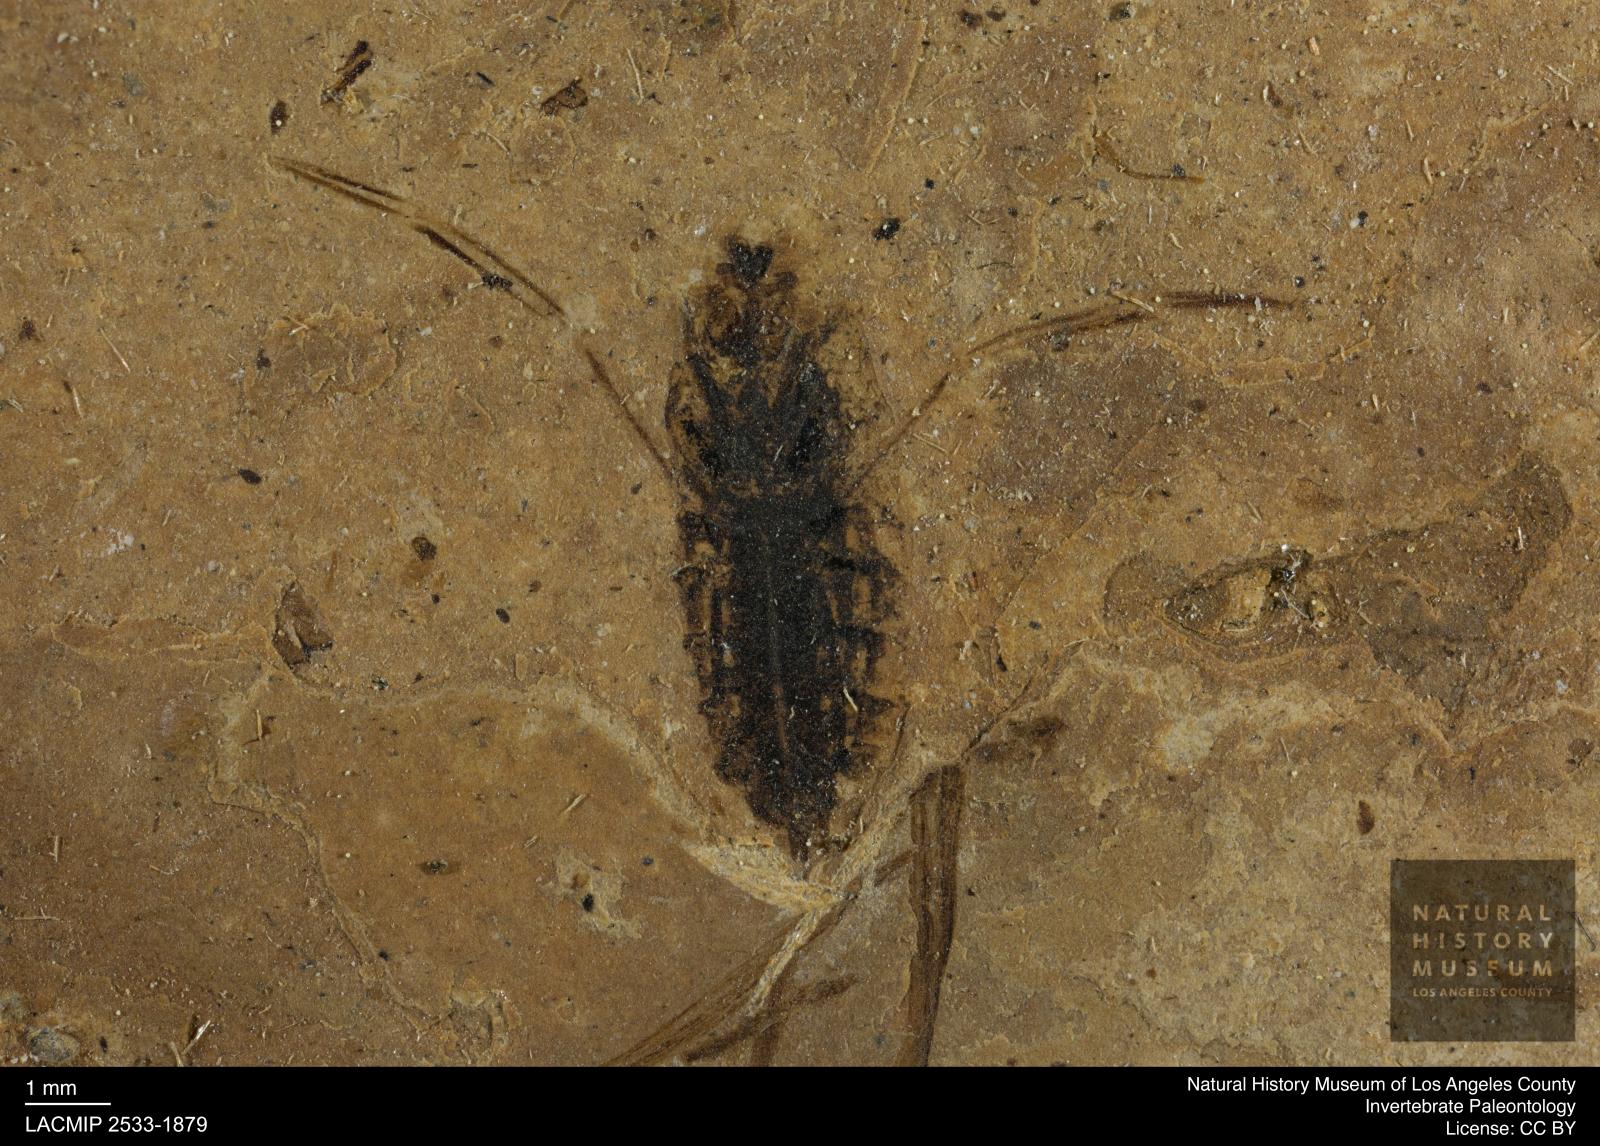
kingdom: Animalia
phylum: Arthropoda
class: Insecta
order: Hemiptera
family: Notonectidae
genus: Anisops
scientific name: Anisops Notonecta deichmuelleri
